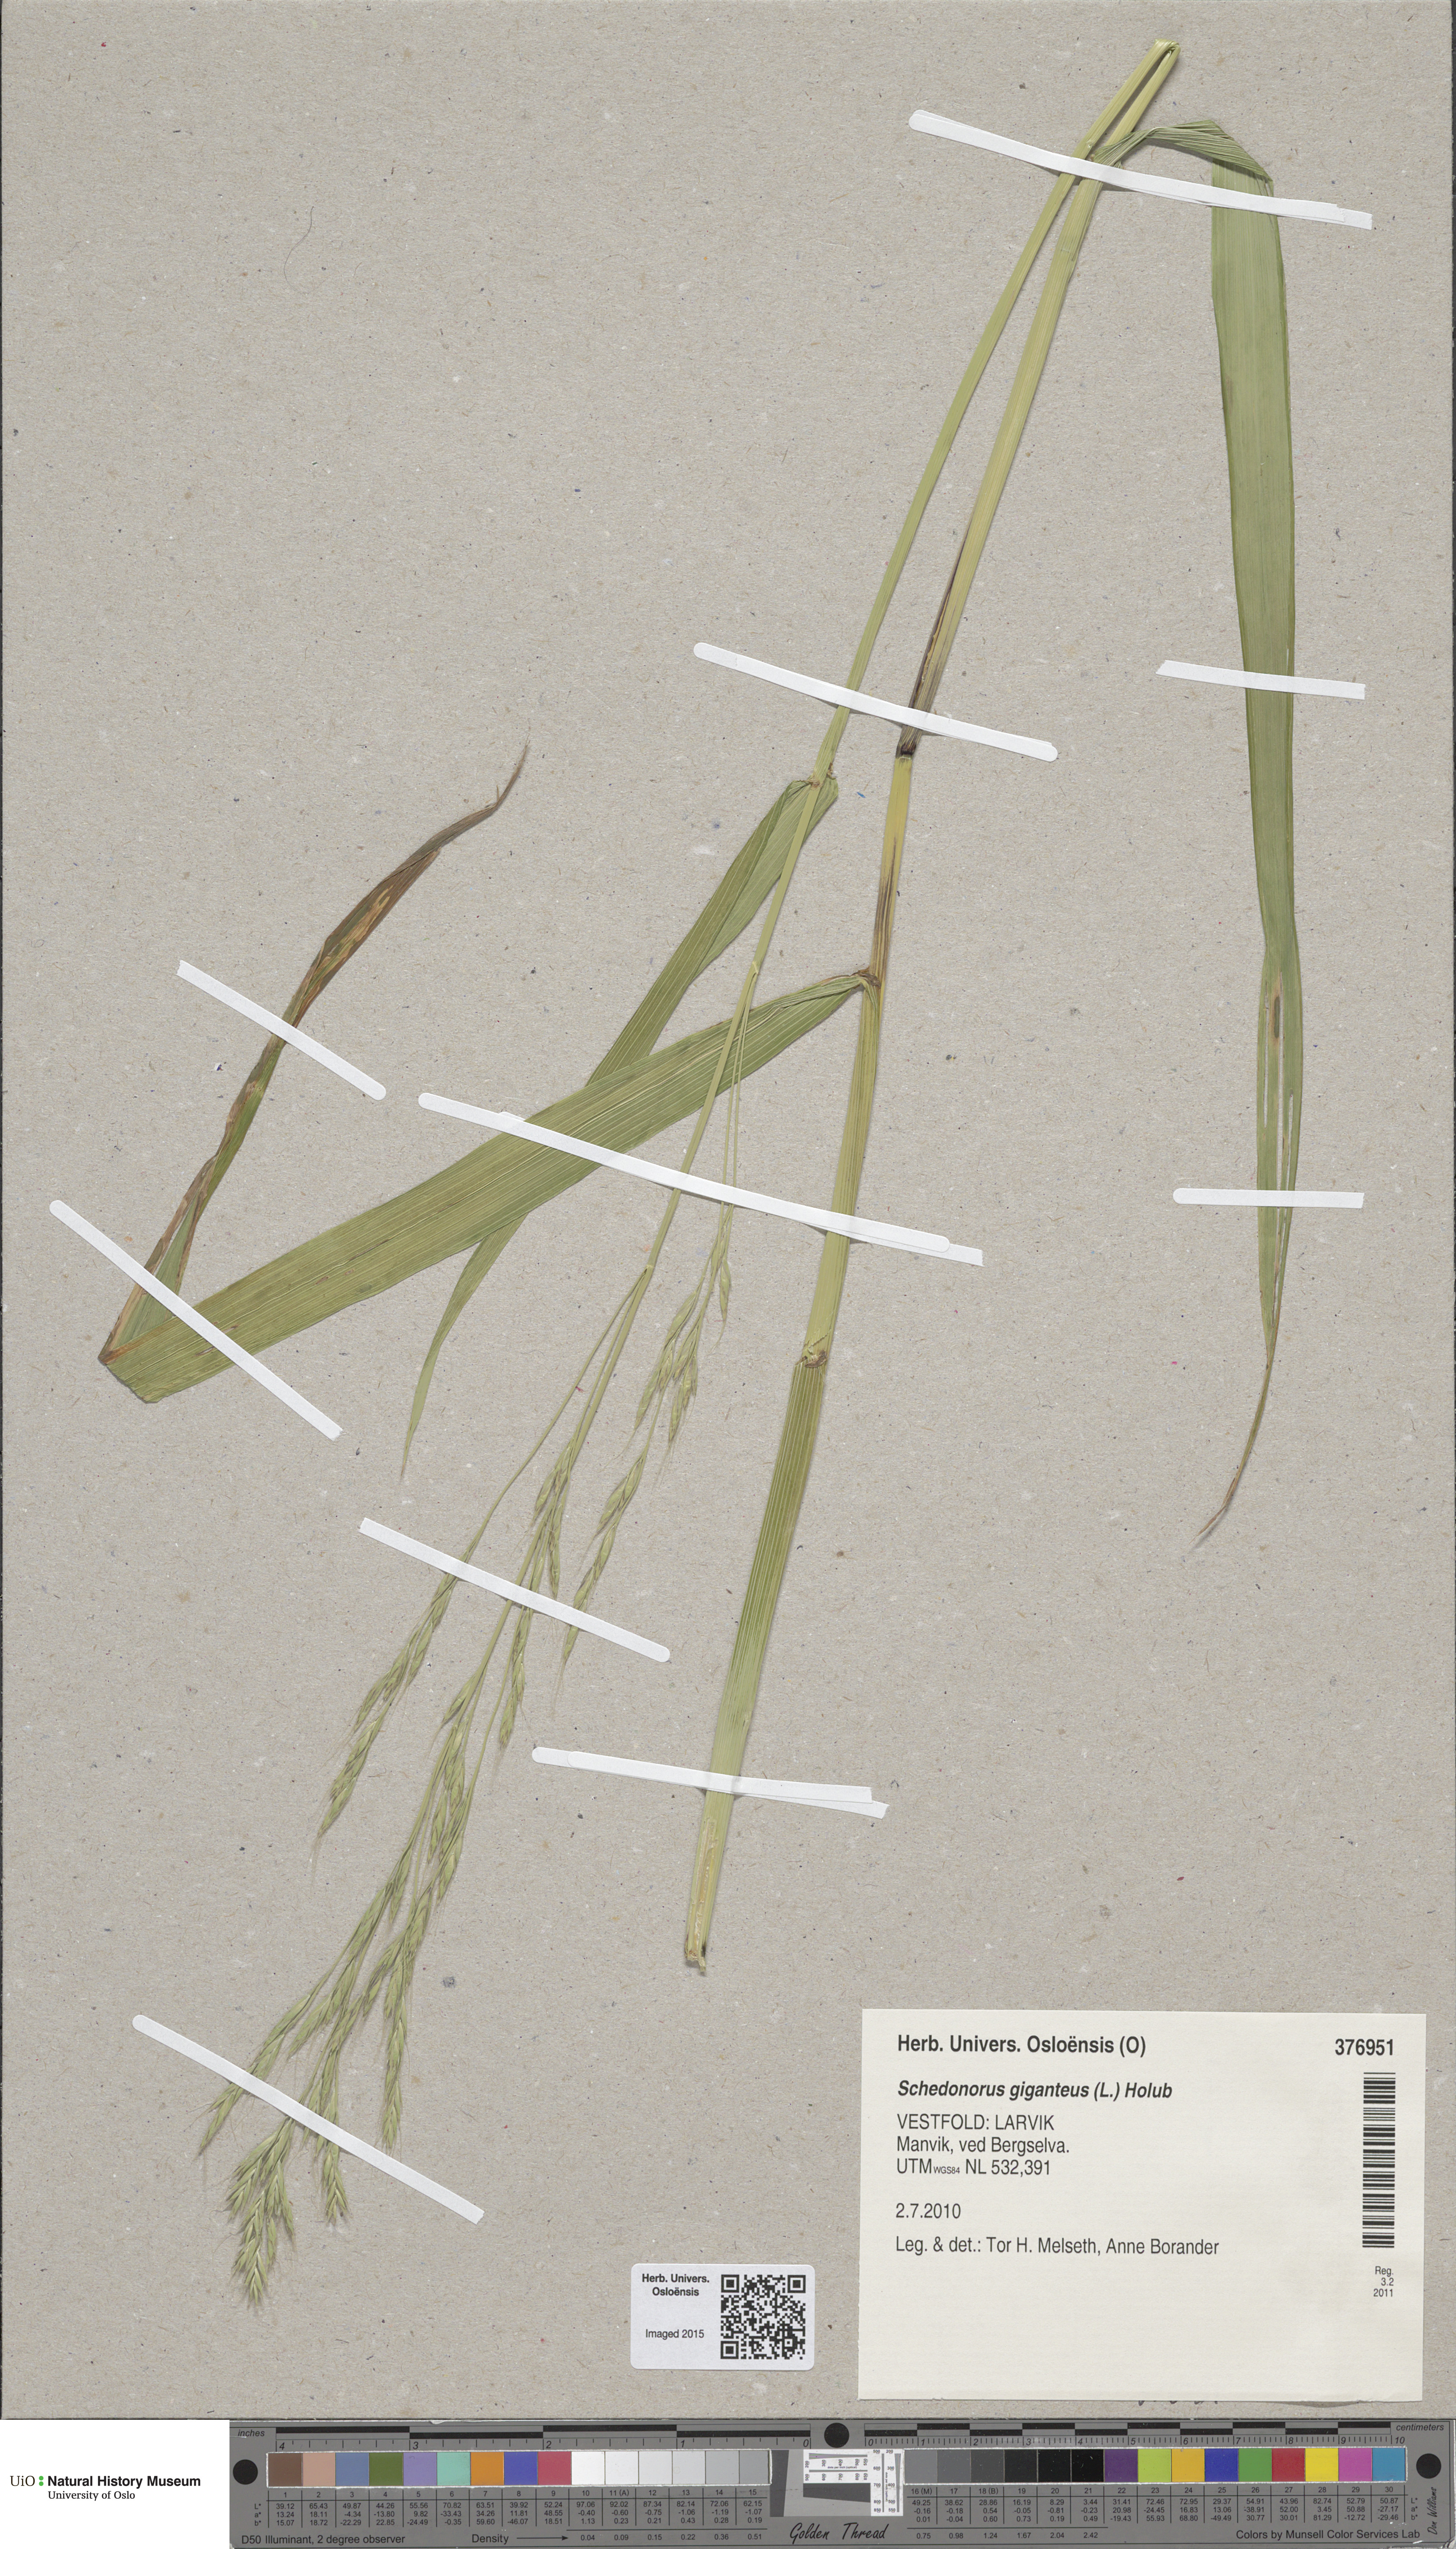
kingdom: Plantae
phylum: Tracheophyta
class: Liliopsida
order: Poales
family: Poaceae
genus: Lolium
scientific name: Lolium giganteum
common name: Giant fescue
